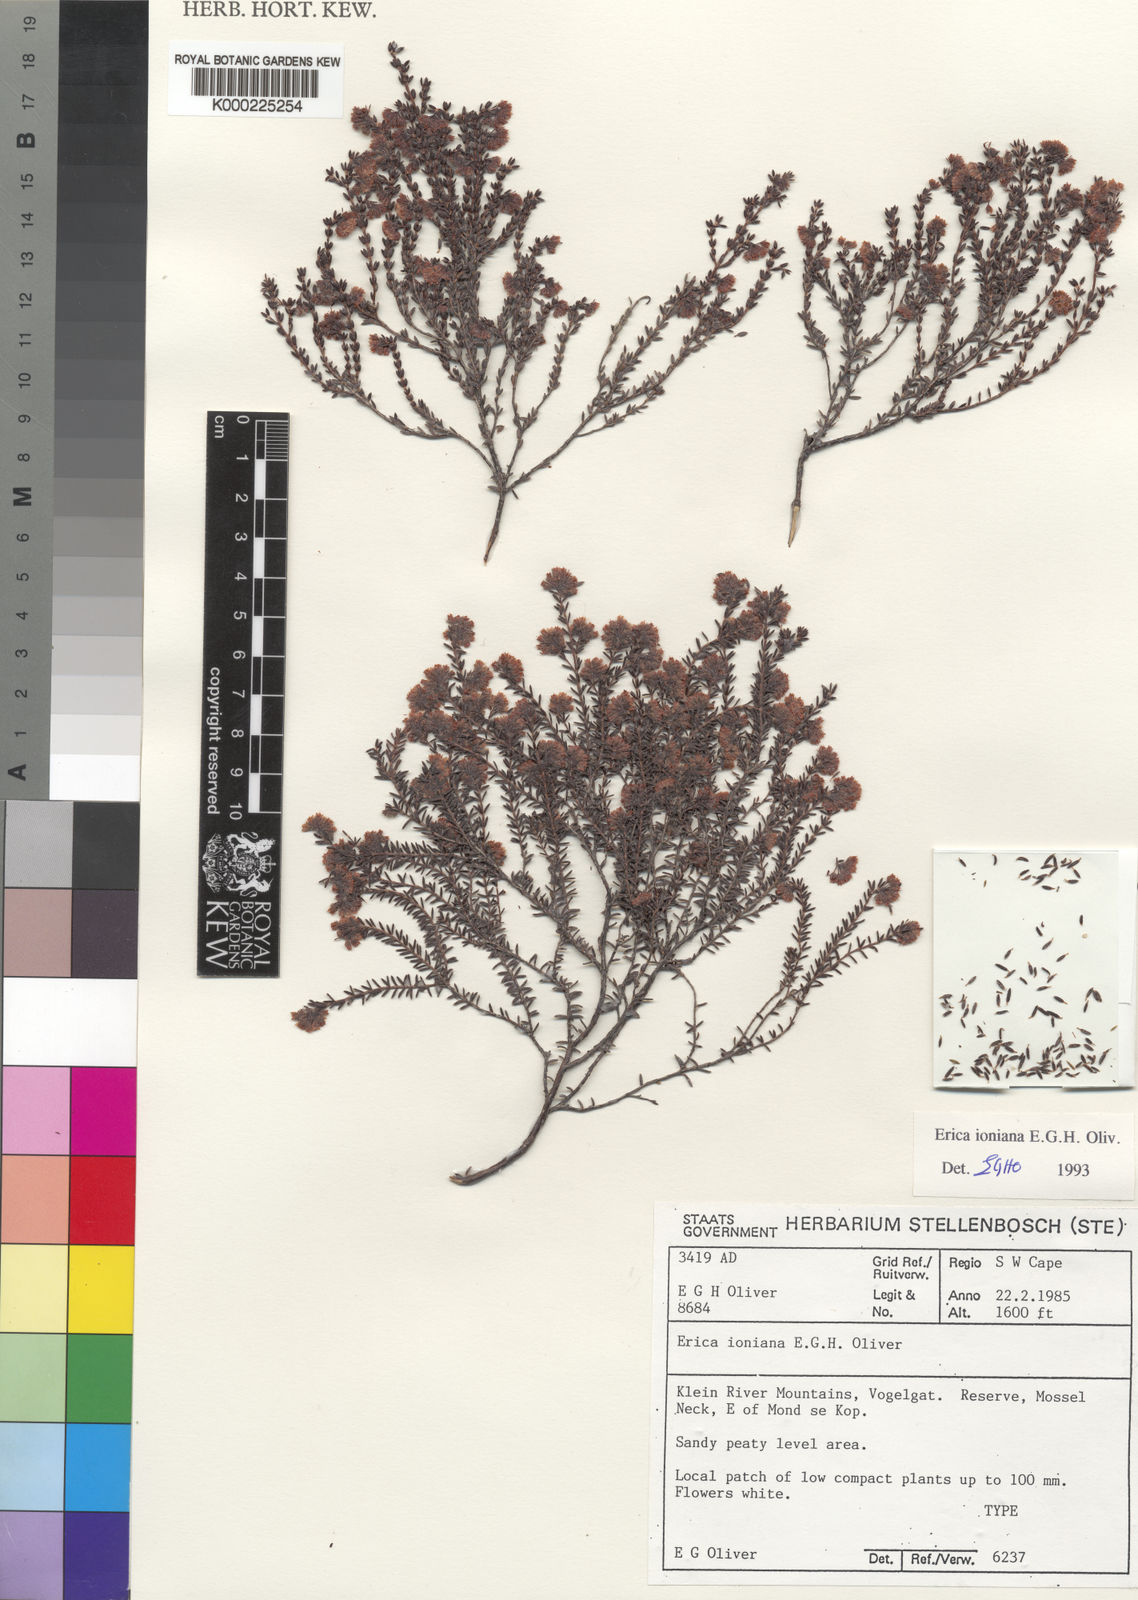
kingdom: Plantae
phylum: Tracheophyta
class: Magnoliopsida
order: Ericales
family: Ericaceae
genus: Erica
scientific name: Erica ioniana
